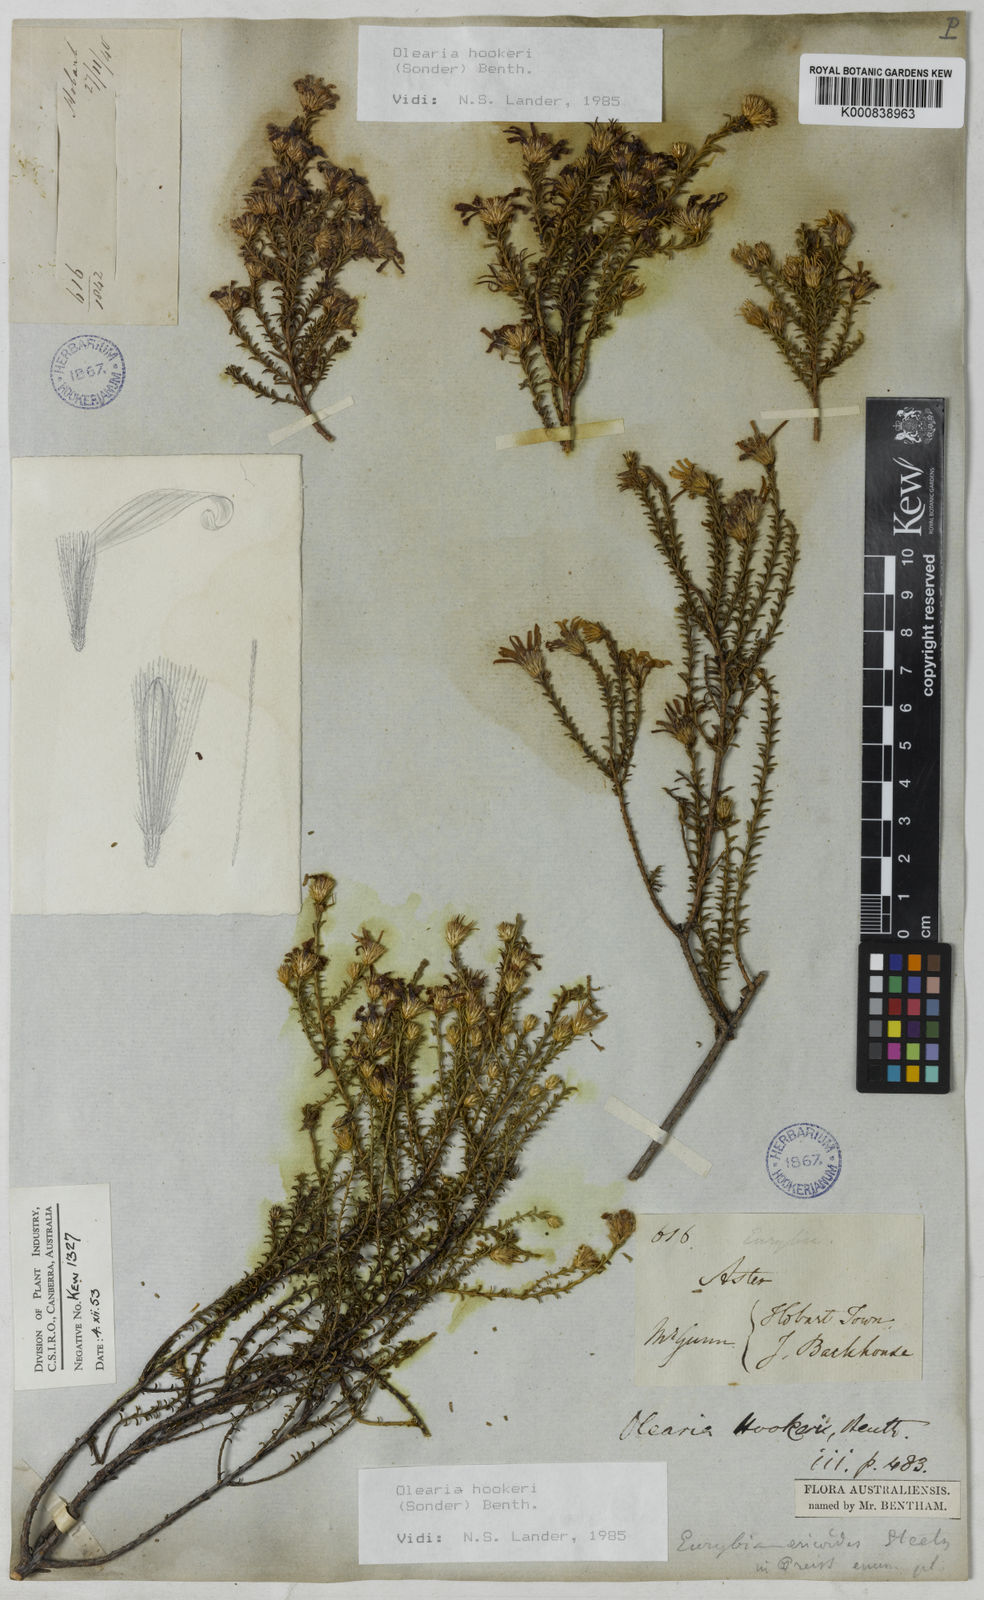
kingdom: Plantae
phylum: Tracheophyta
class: Magnoliopsida
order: Asterales
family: Asteraceae
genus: Olearia
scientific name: Olearia hookeri
